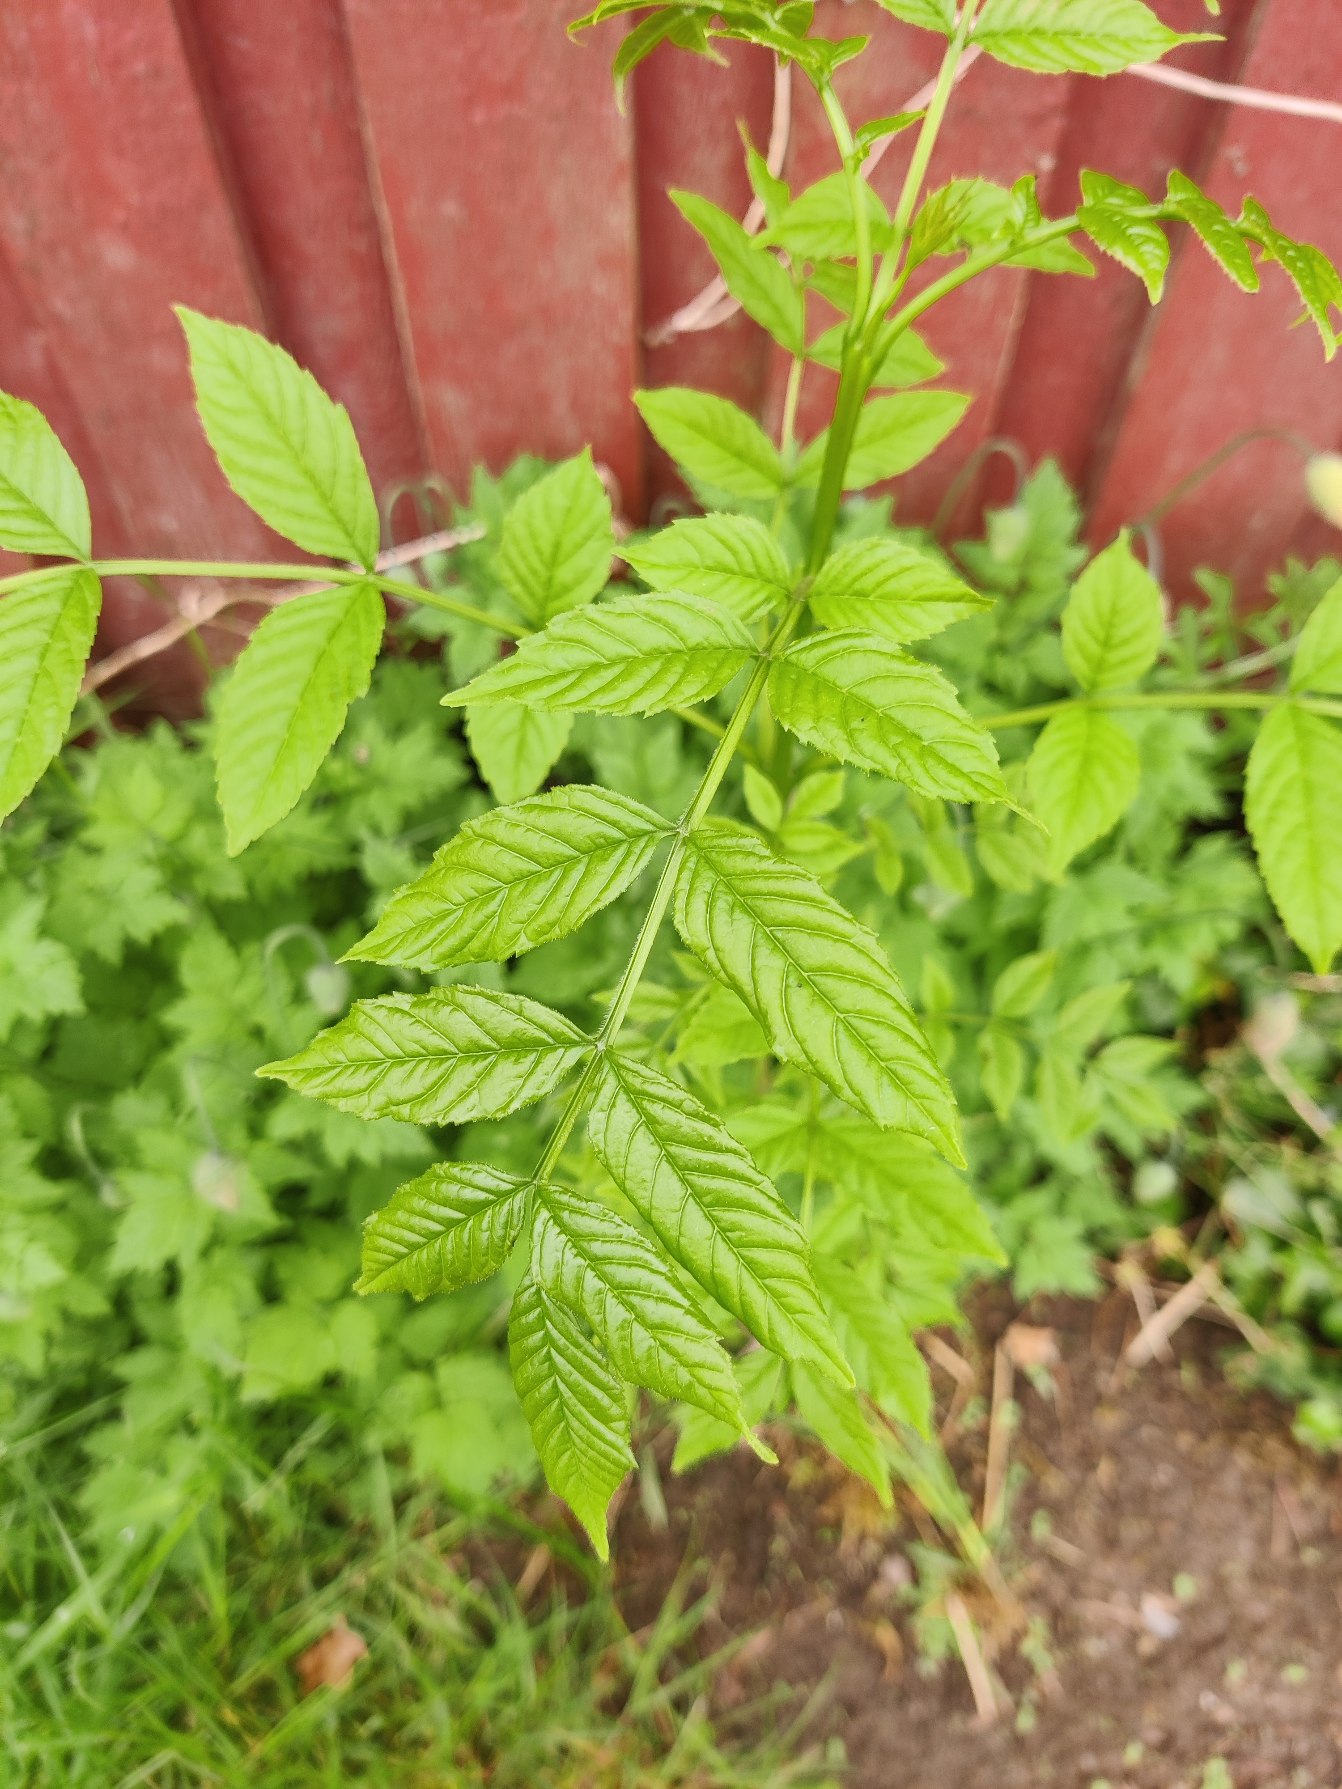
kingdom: Plantae
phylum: Tracheophyta
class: Magnoliopsida
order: Lamiales
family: Oleaceae
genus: Fraxinus
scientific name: Fraxinus excelsior
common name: Ask
